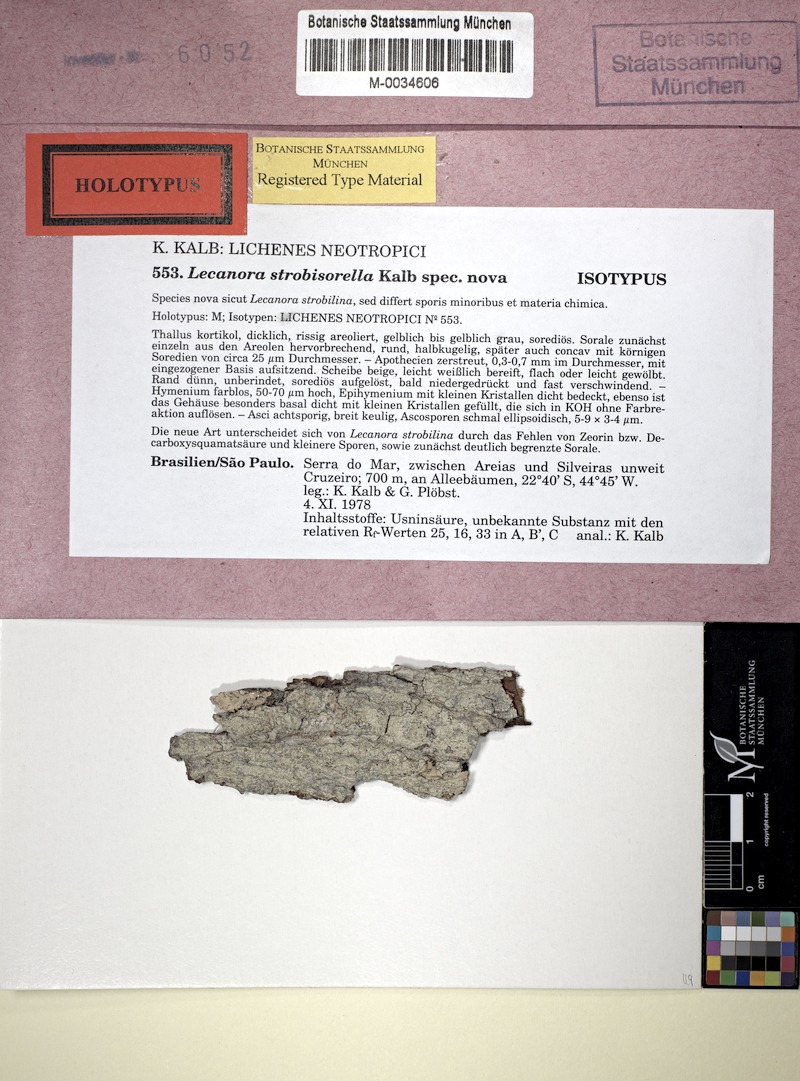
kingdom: Fungi
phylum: Ascomycota
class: Lecanoromycetes
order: Lecanorales
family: Lecanoraceae
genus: Lecanora
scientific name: Lecanora strobisorella
